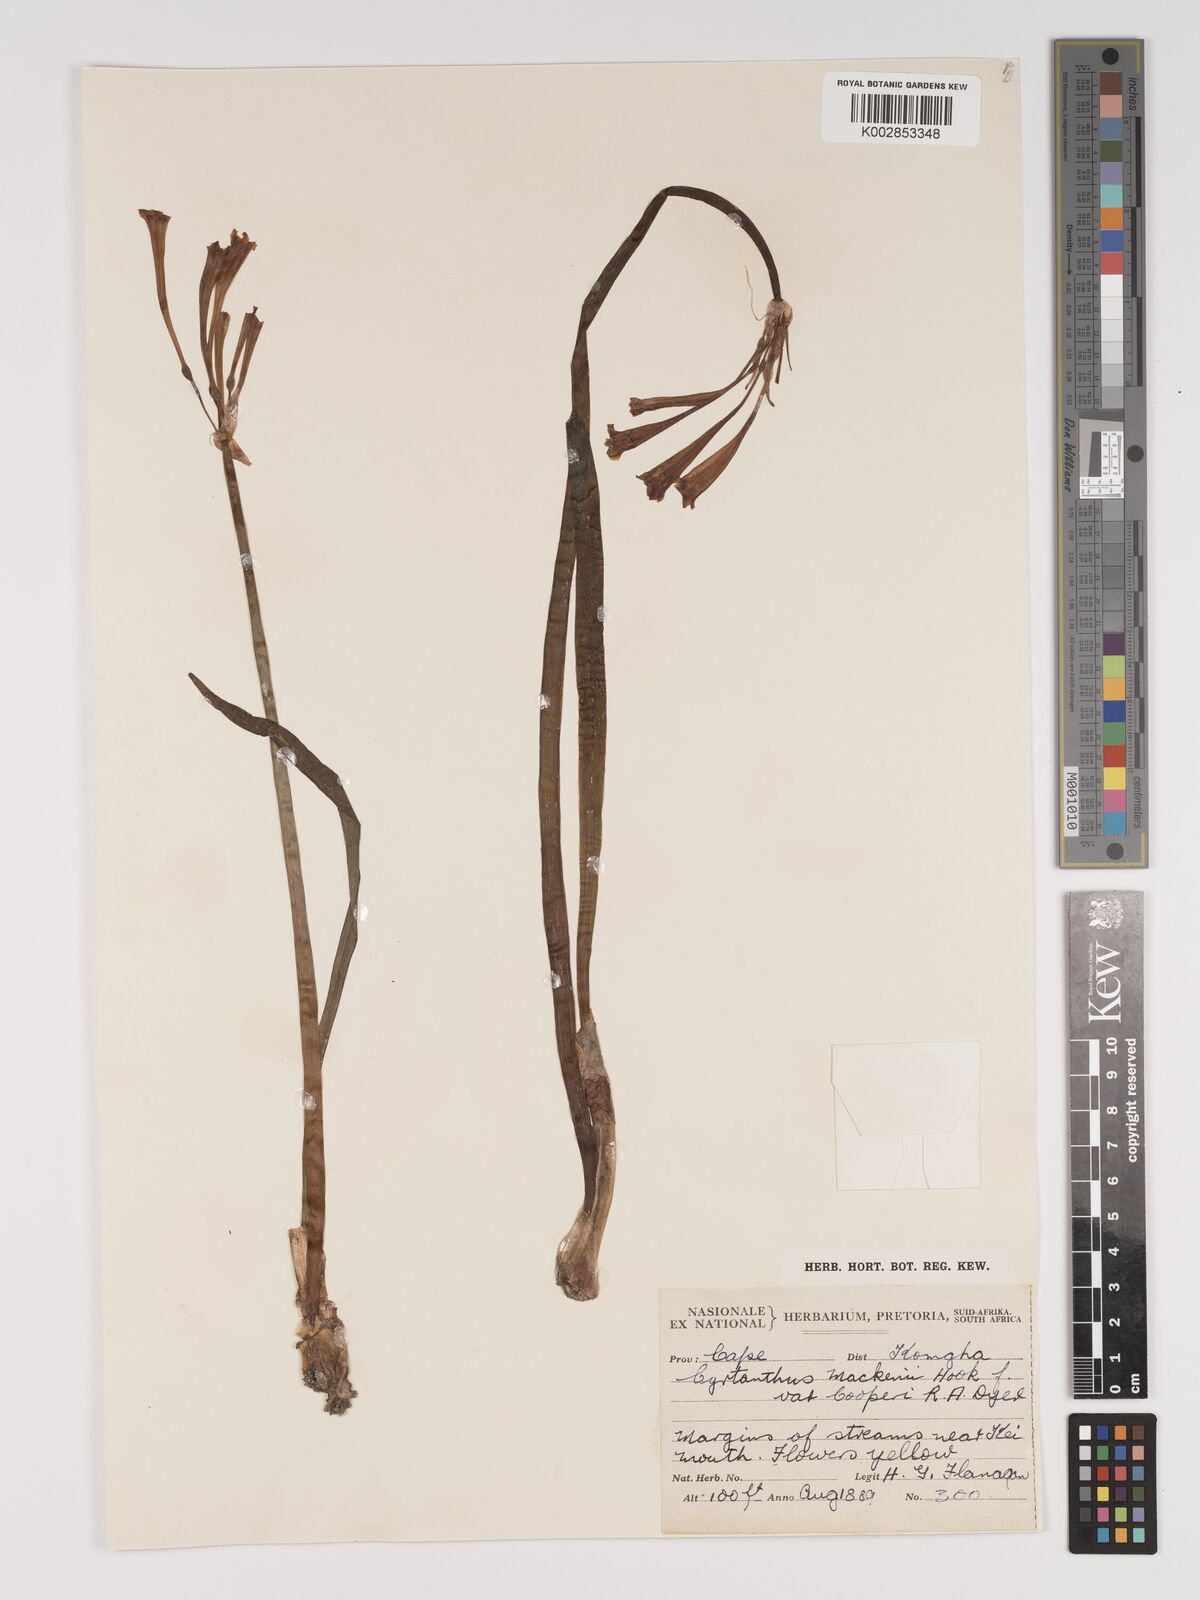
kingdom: Plantae
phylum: Tracheophyta
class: Liliopsida
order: Asparagales
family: Amaryllidaceae
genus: Cyrtanthus
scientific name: Cyrtanthus mackenii
